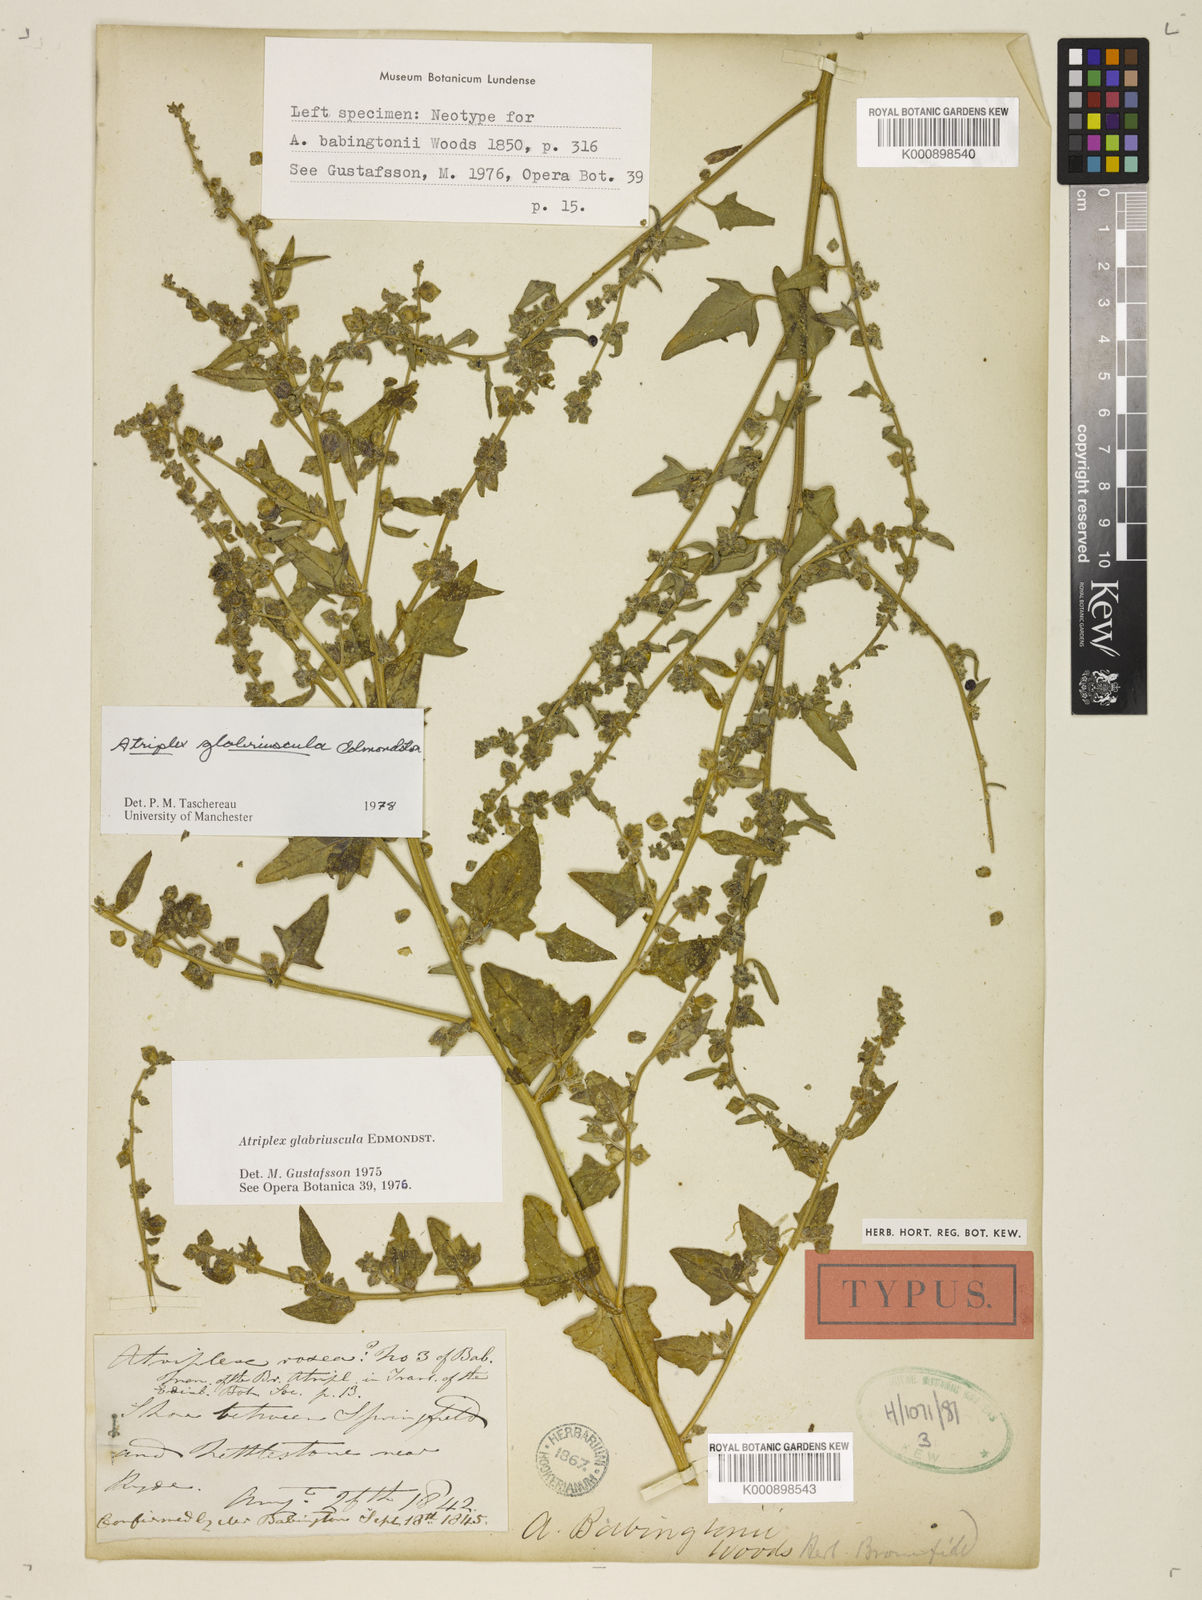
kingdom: Plantae
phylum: Tracheophyta
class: Magnoliopsida
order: Caryophyllales
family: Amaranthaceae
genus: Atriplex
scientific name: Atriplex glabriuscula
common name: Babington's orache
